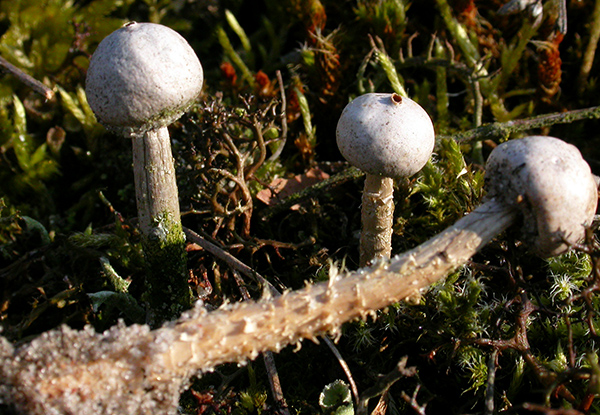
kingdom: Fungi
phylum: Basidiomycota
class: Agaricomycetes
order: Agaricales
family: Agaricaceae
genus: Tulostoma
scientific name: Tulostoma kotlabae
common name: gråhvid stilkbovist
